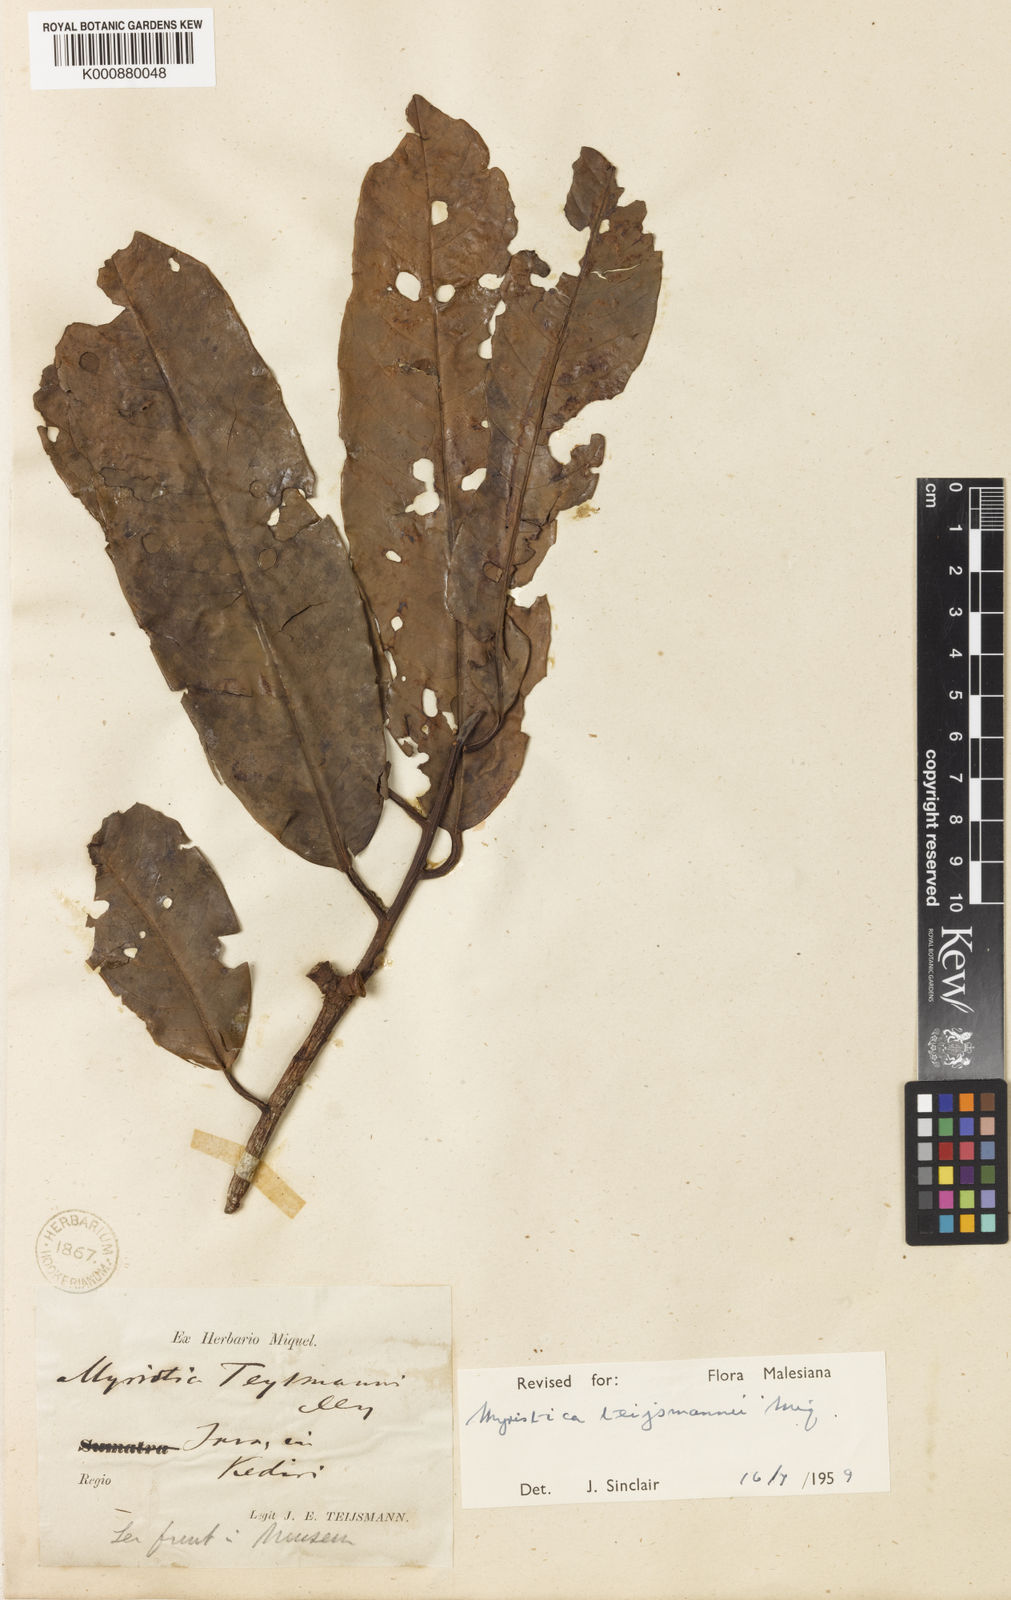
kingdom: Plantae
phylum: Tracheophyta
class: Magnoliopsida
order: Magnoliales
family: Myristicaceae
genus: Myristica
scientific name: Myristica teysmannii
